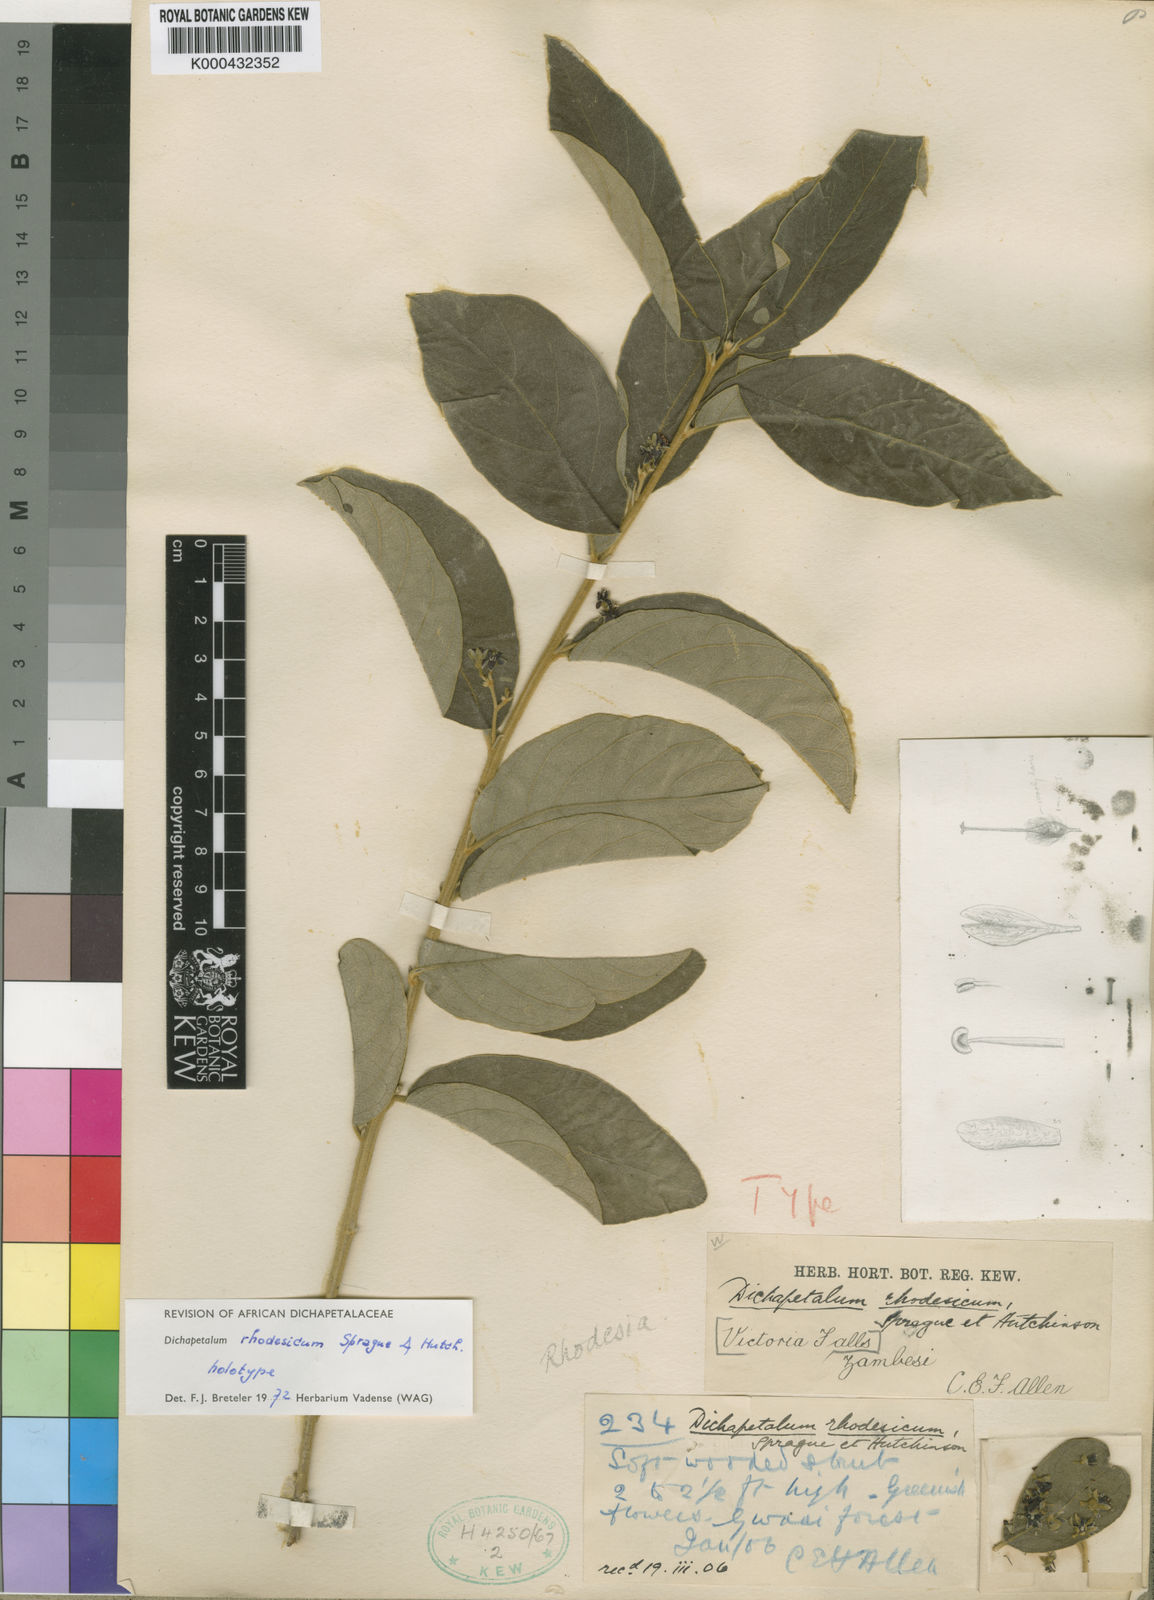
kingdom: Plantae
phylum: Tracheophyta
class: Magnoliopsida
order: Malpighiales
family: Dichapetalaceae
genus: Dichapetalum
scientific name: Dichapetalum rhodesicum
